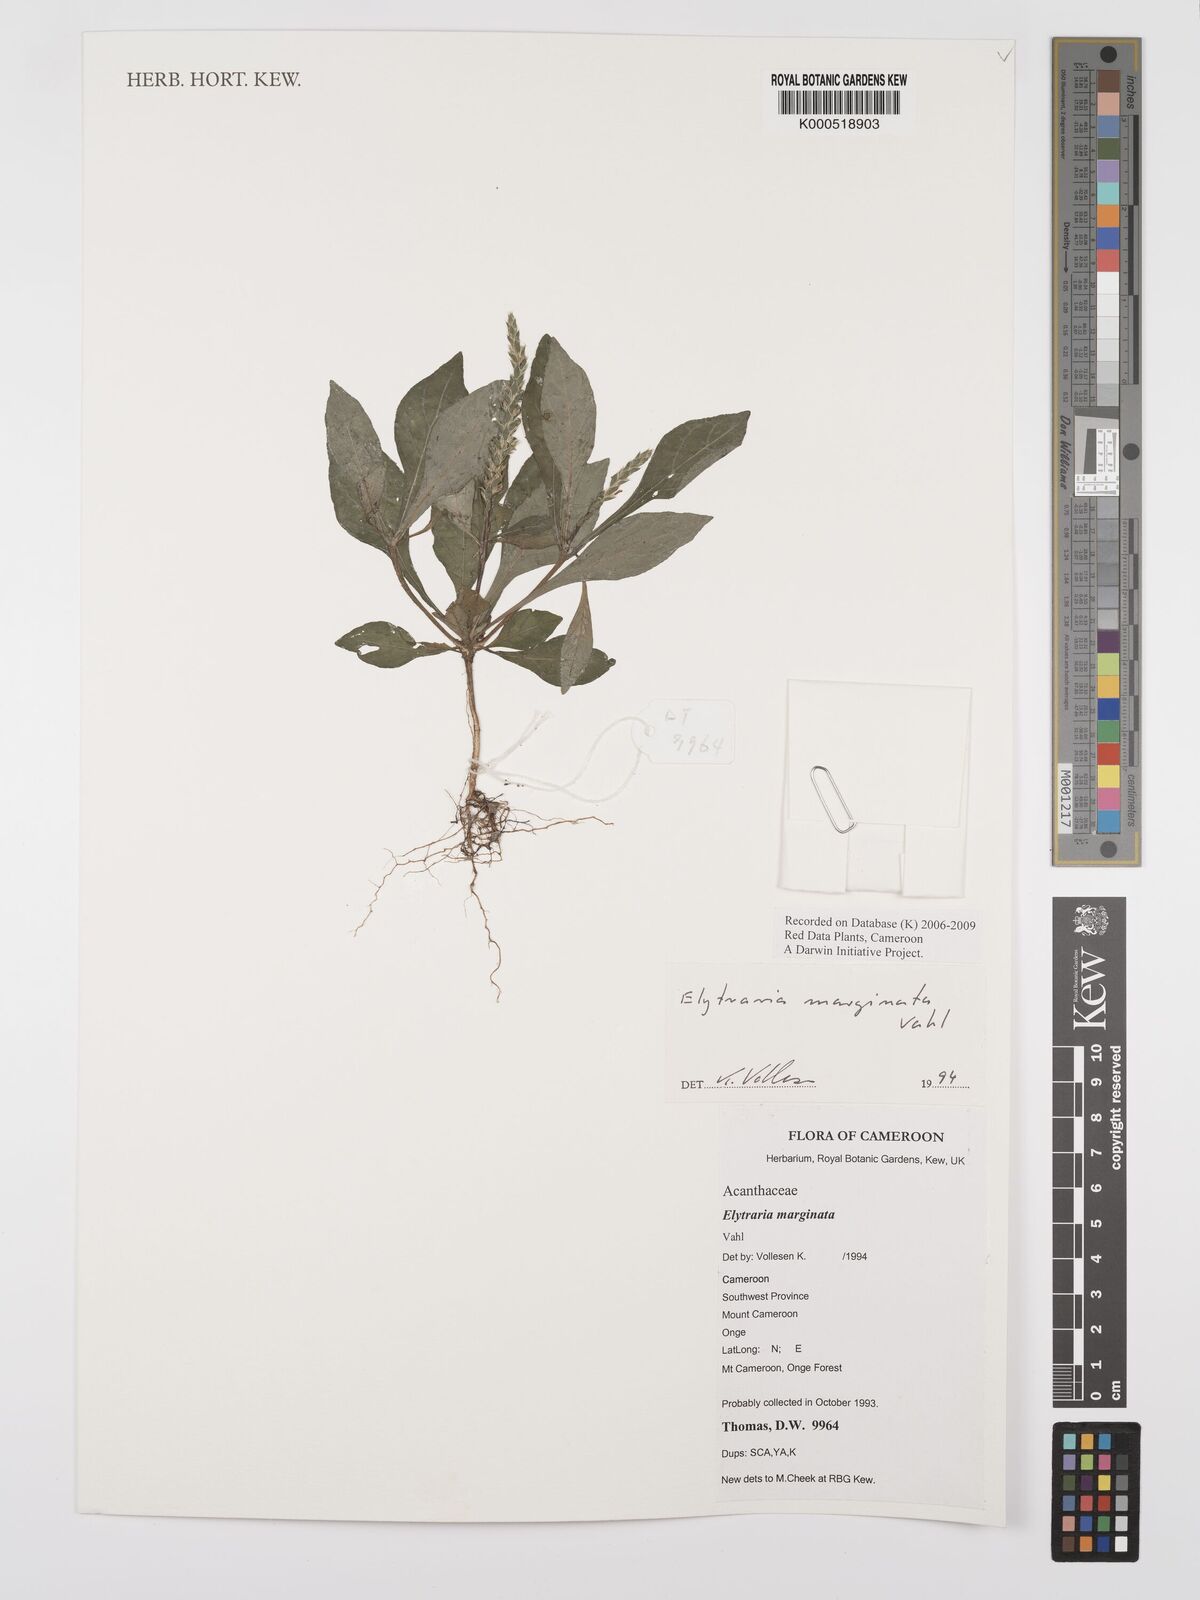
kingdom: Plantae
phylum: Tracheophyta
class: Magnoliopsida
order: Lamiales
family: Acanthaceae
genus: Elytraria
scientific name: Elytraria marginata
